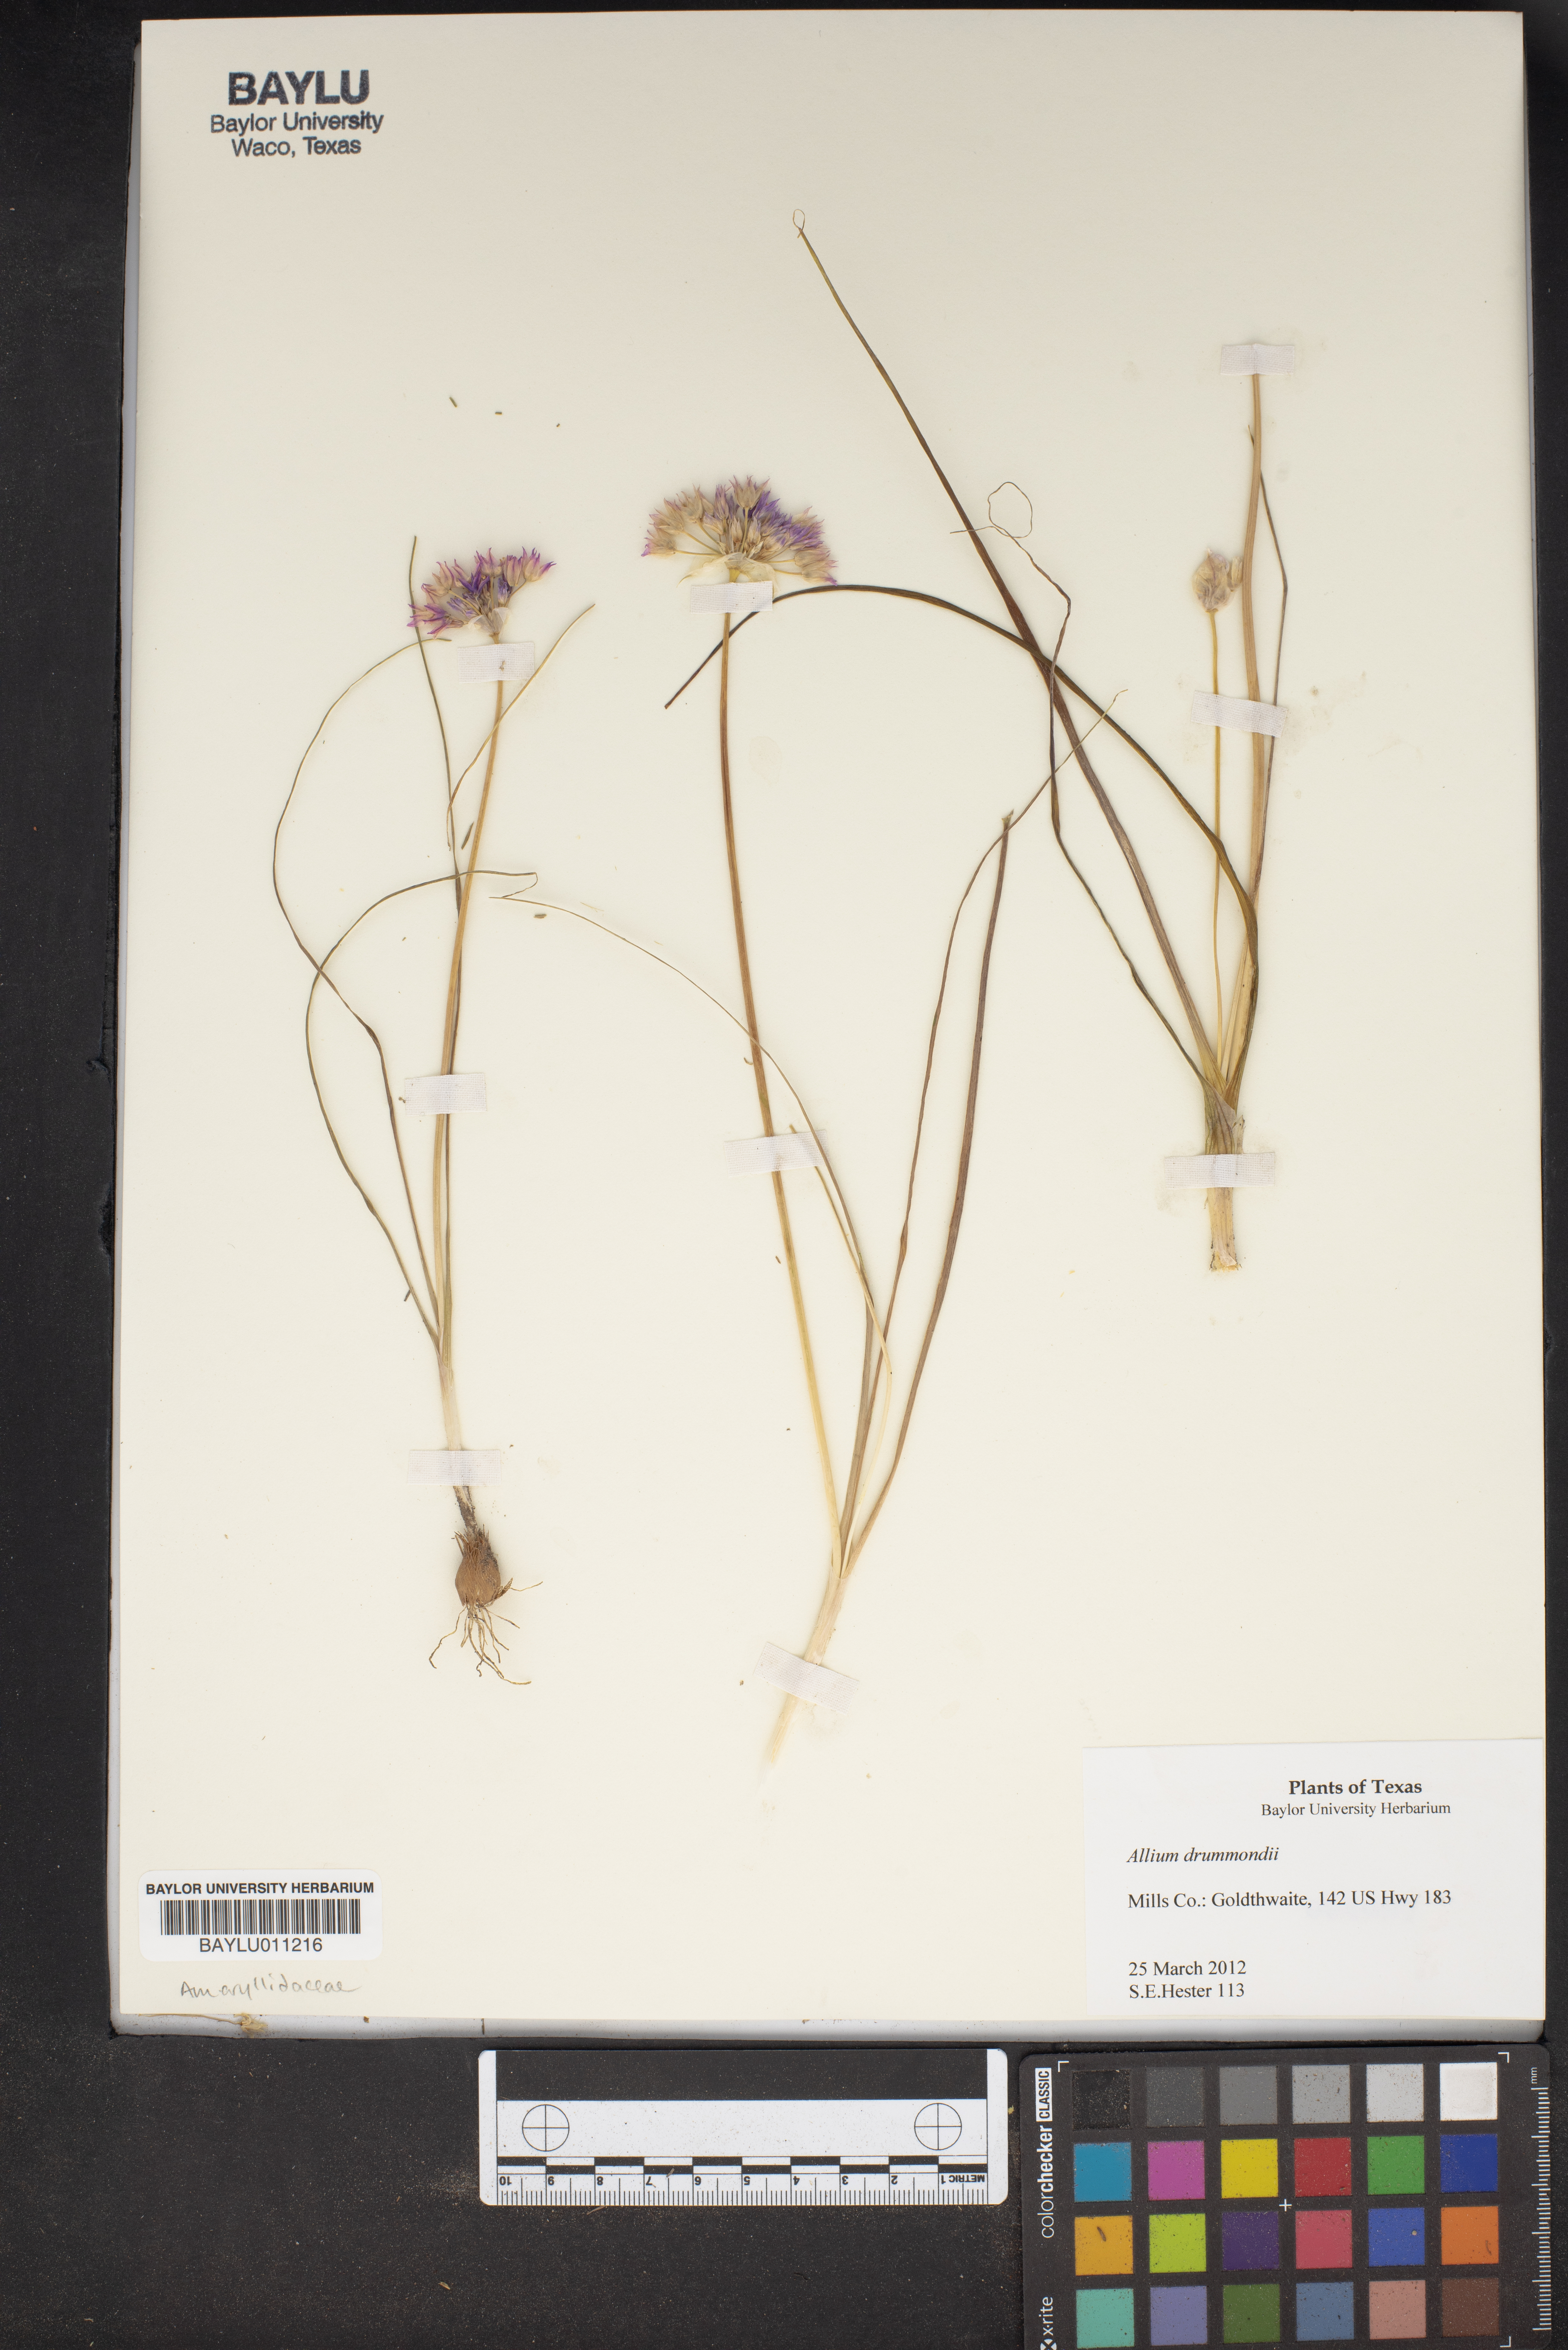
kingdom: Plantae
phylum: Tracheophyta
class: Liliopsida
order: Asparagales
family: Amaryllidaceae
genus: Allium
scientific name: Allium drummondii
